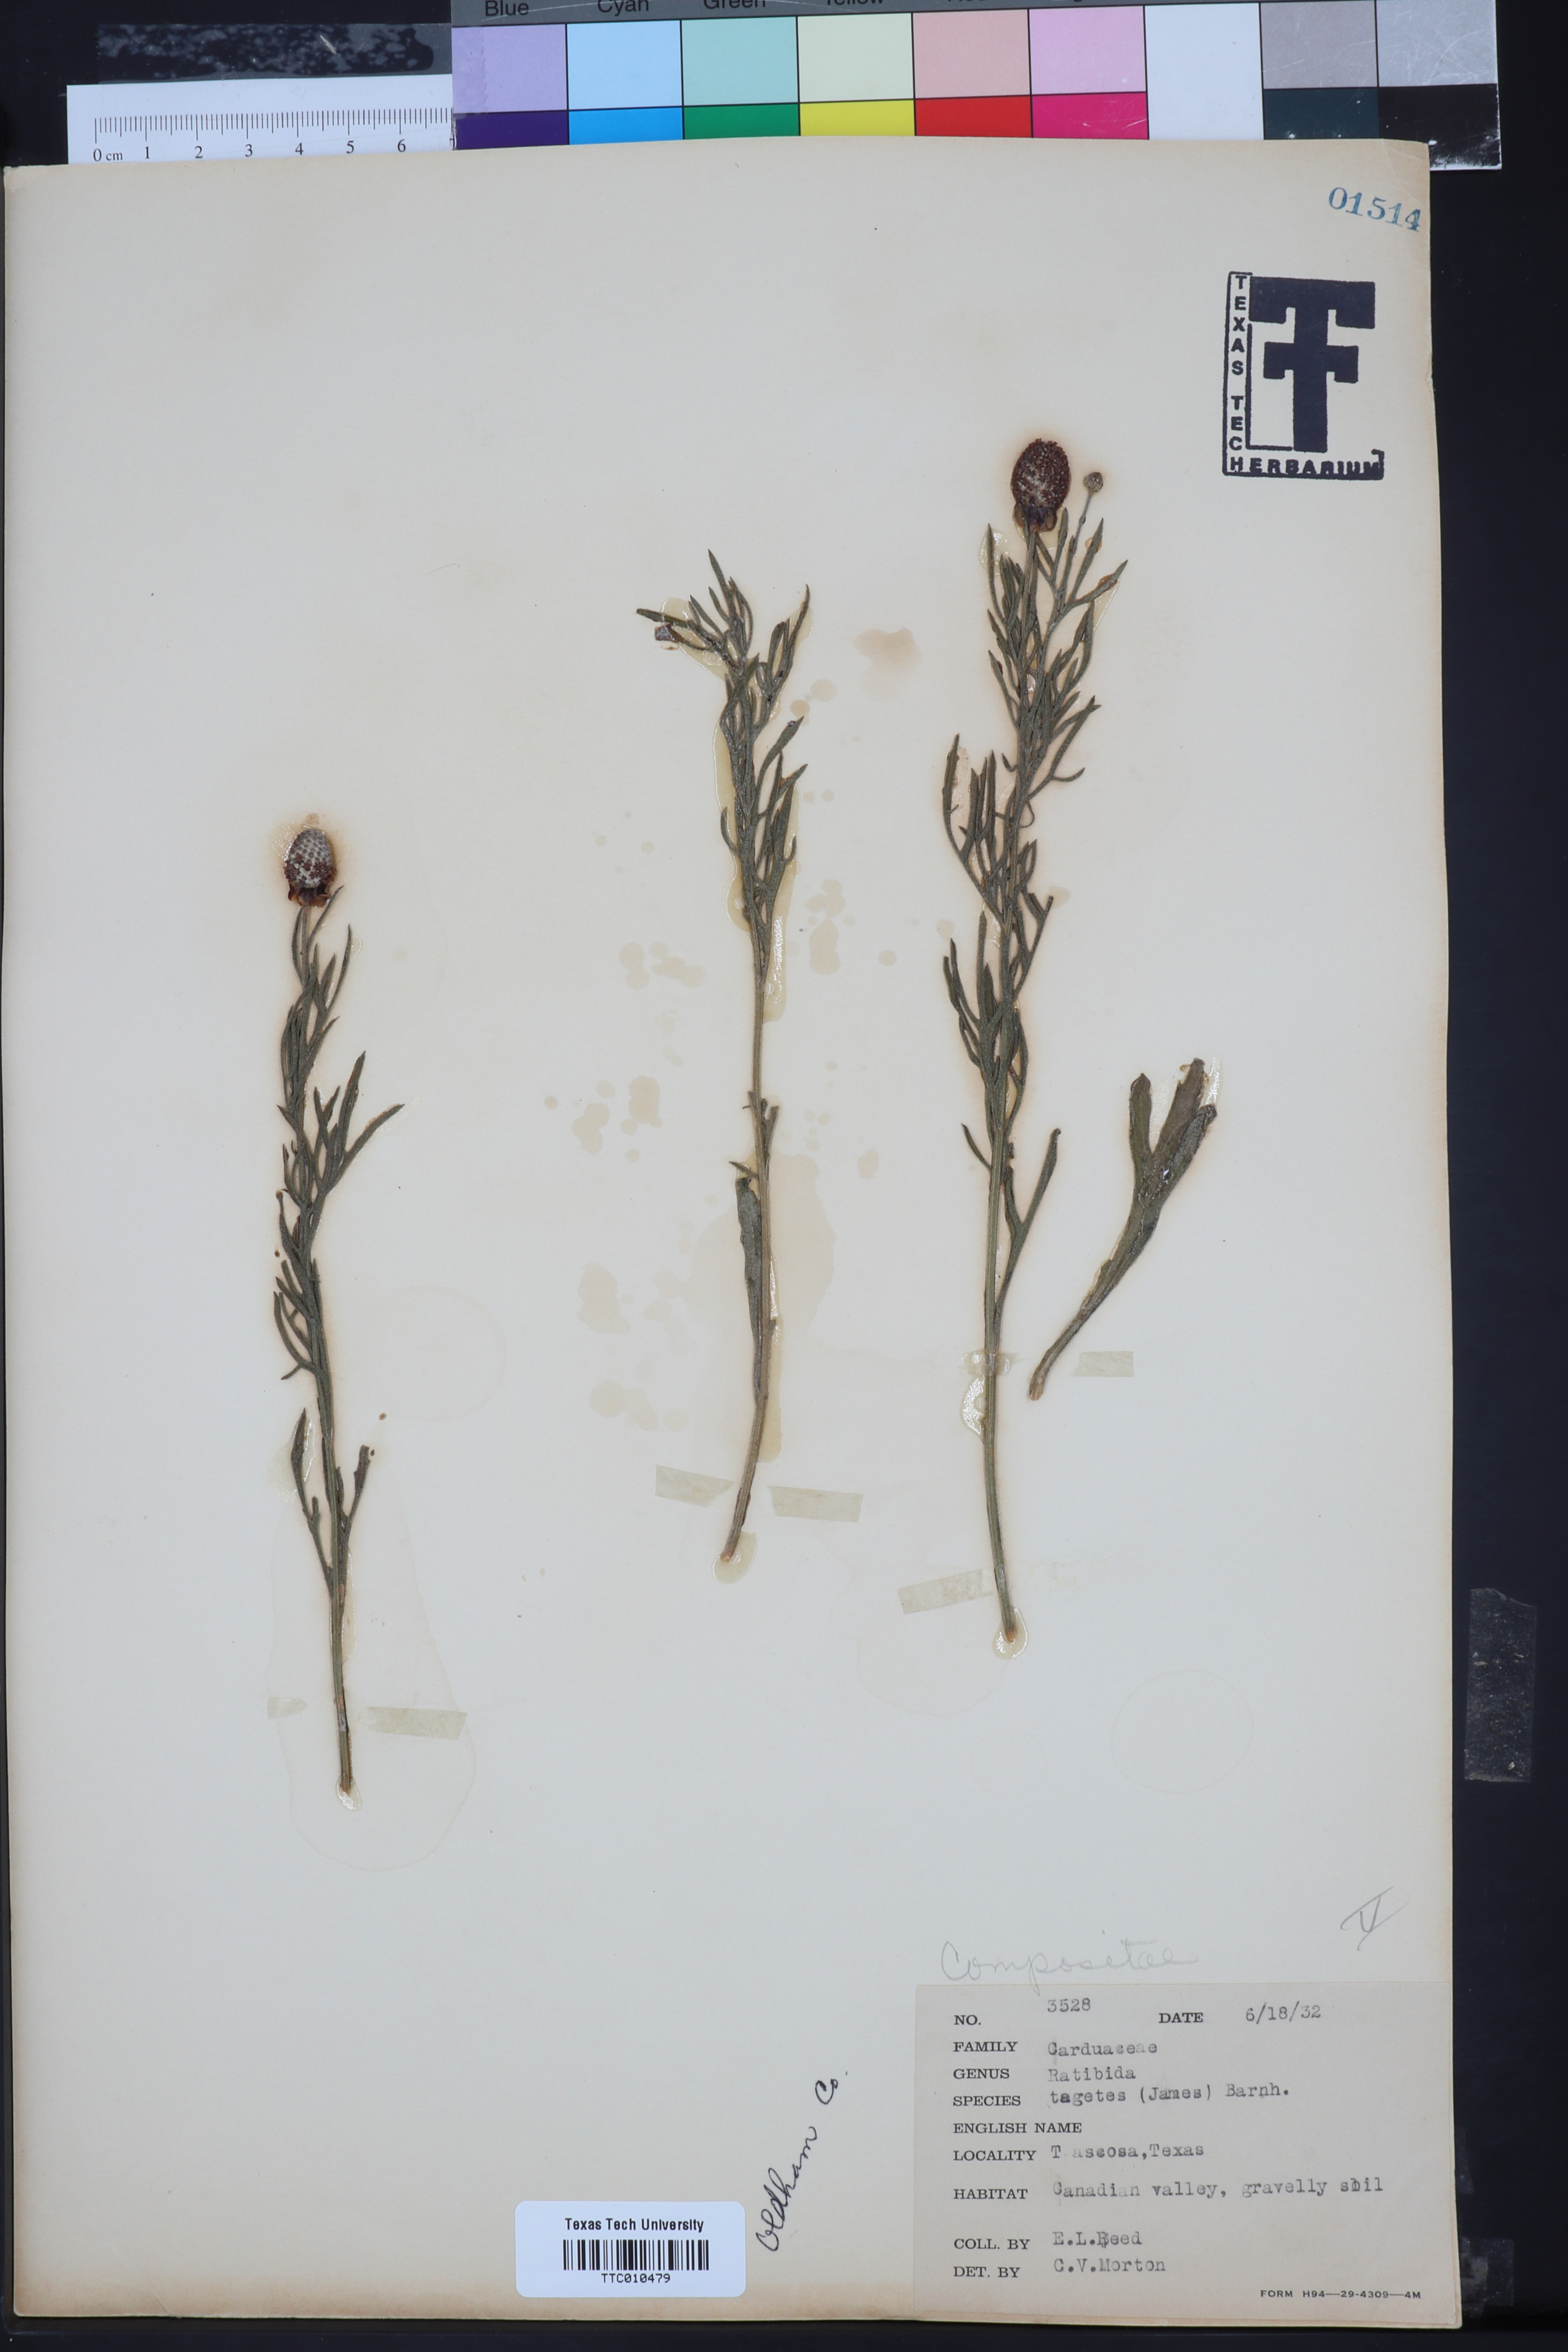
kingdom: Plantae
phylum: Tracheophyta
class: Magnoliopsida
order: Asterales
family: Asteraceae
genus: Ratibida
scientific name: Ratibida tagetes
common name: Green mexican-hat
